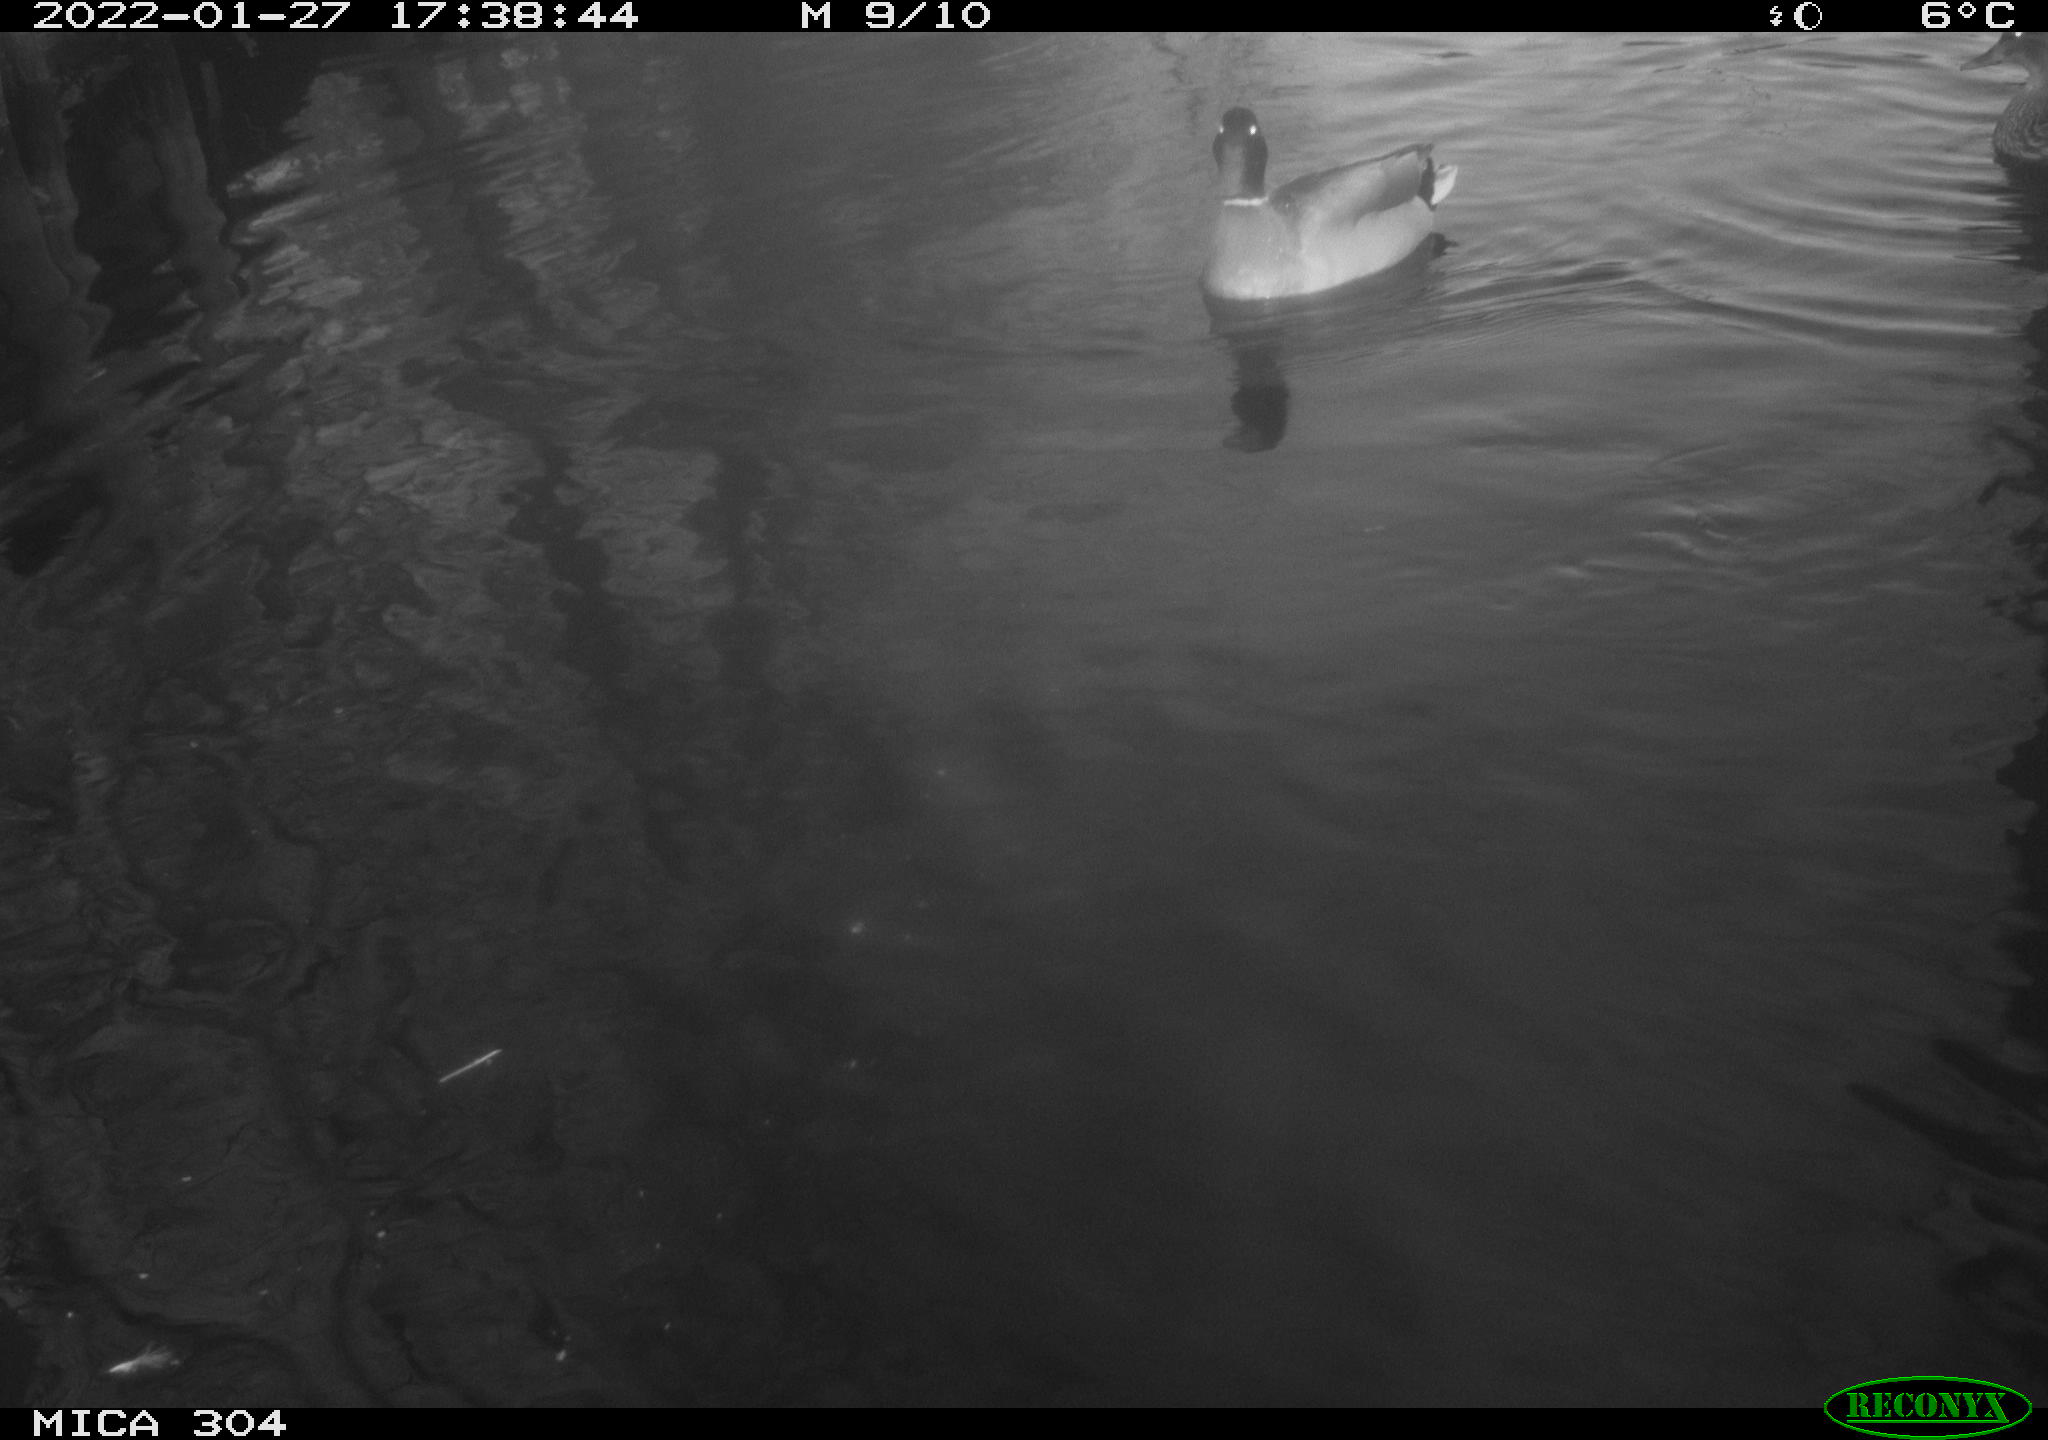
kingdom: Animalia
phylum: Chordata
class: Aves
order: Anseriformes
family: Anatidae
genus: Anas
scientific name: Anas
